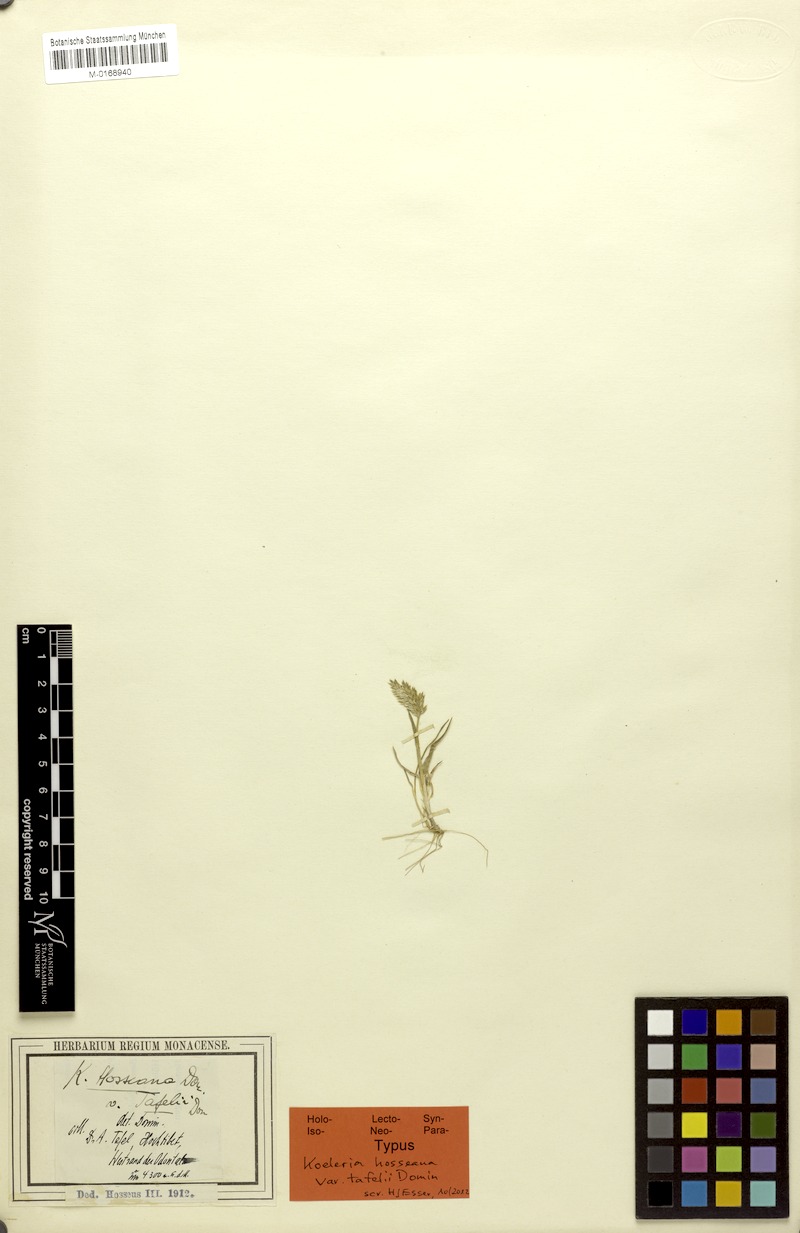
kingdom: Plantae
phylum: Tracheophyta
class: Liliopsida
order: Poales
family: Poaceae
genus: Koeleria
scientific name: Koeleria argentea
